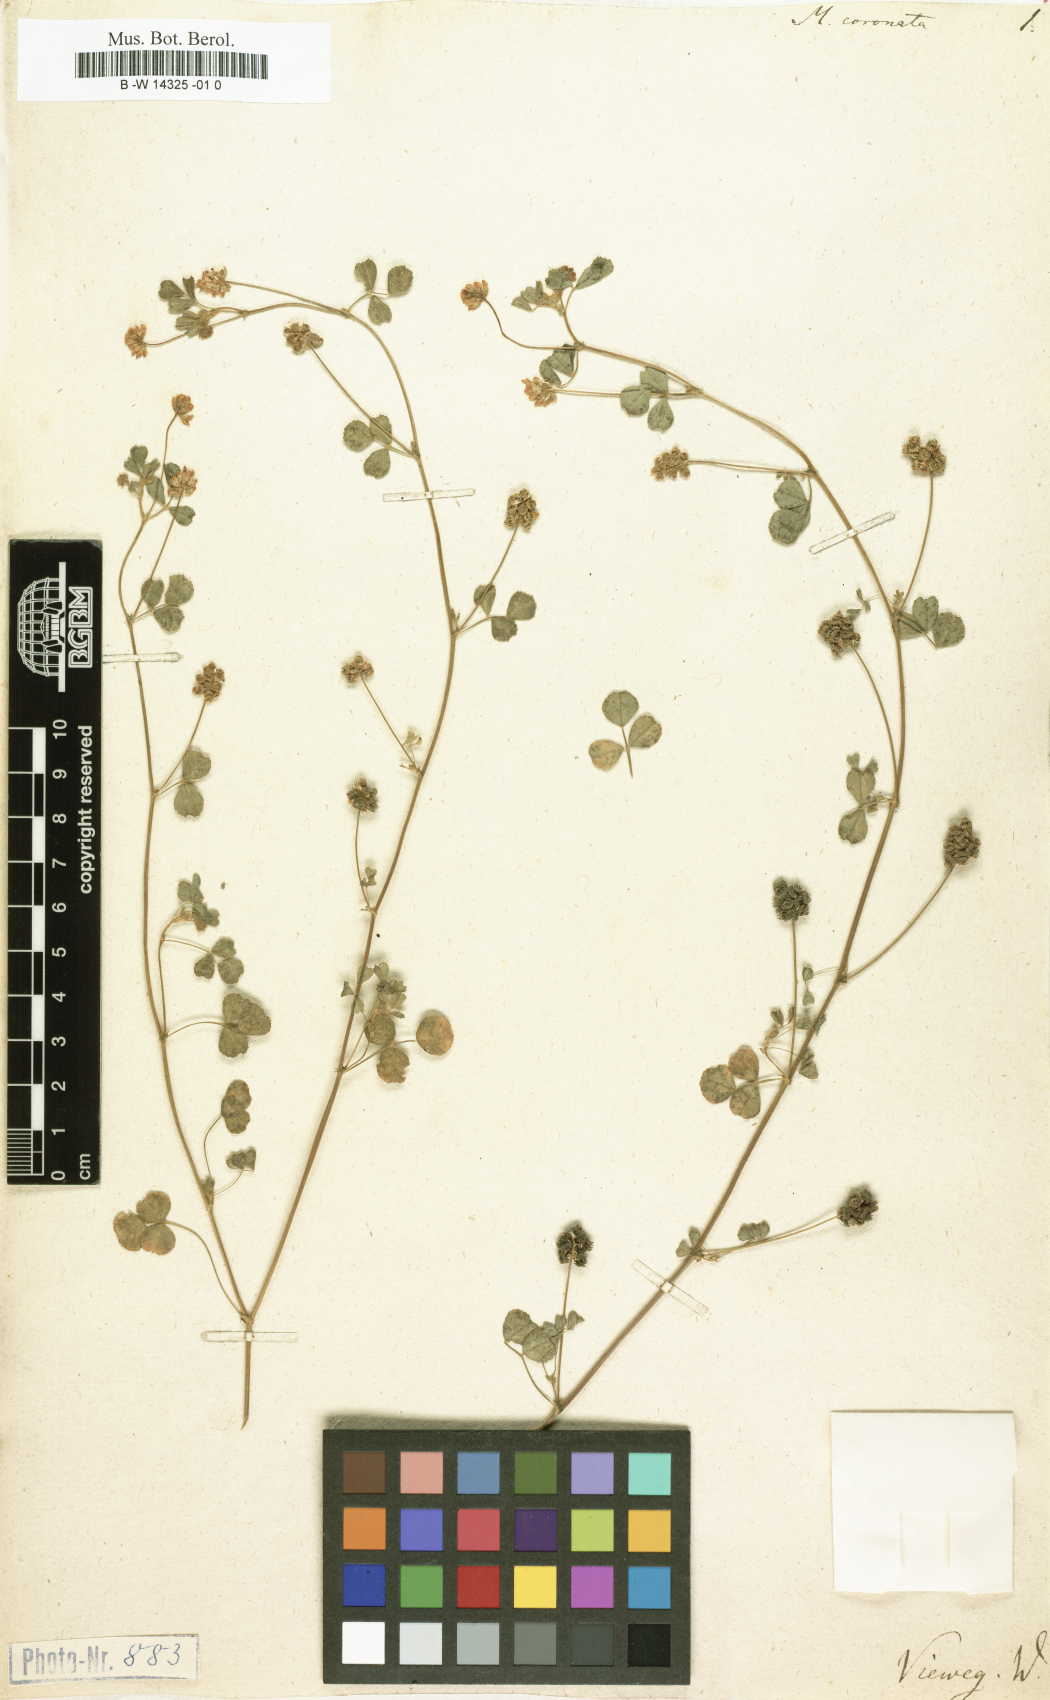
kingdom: Plantae
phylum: Tracheophyta
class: Magnoliopsida
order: Fabales
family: Fabaceae
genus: Medicago
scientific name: Medicago coronata
